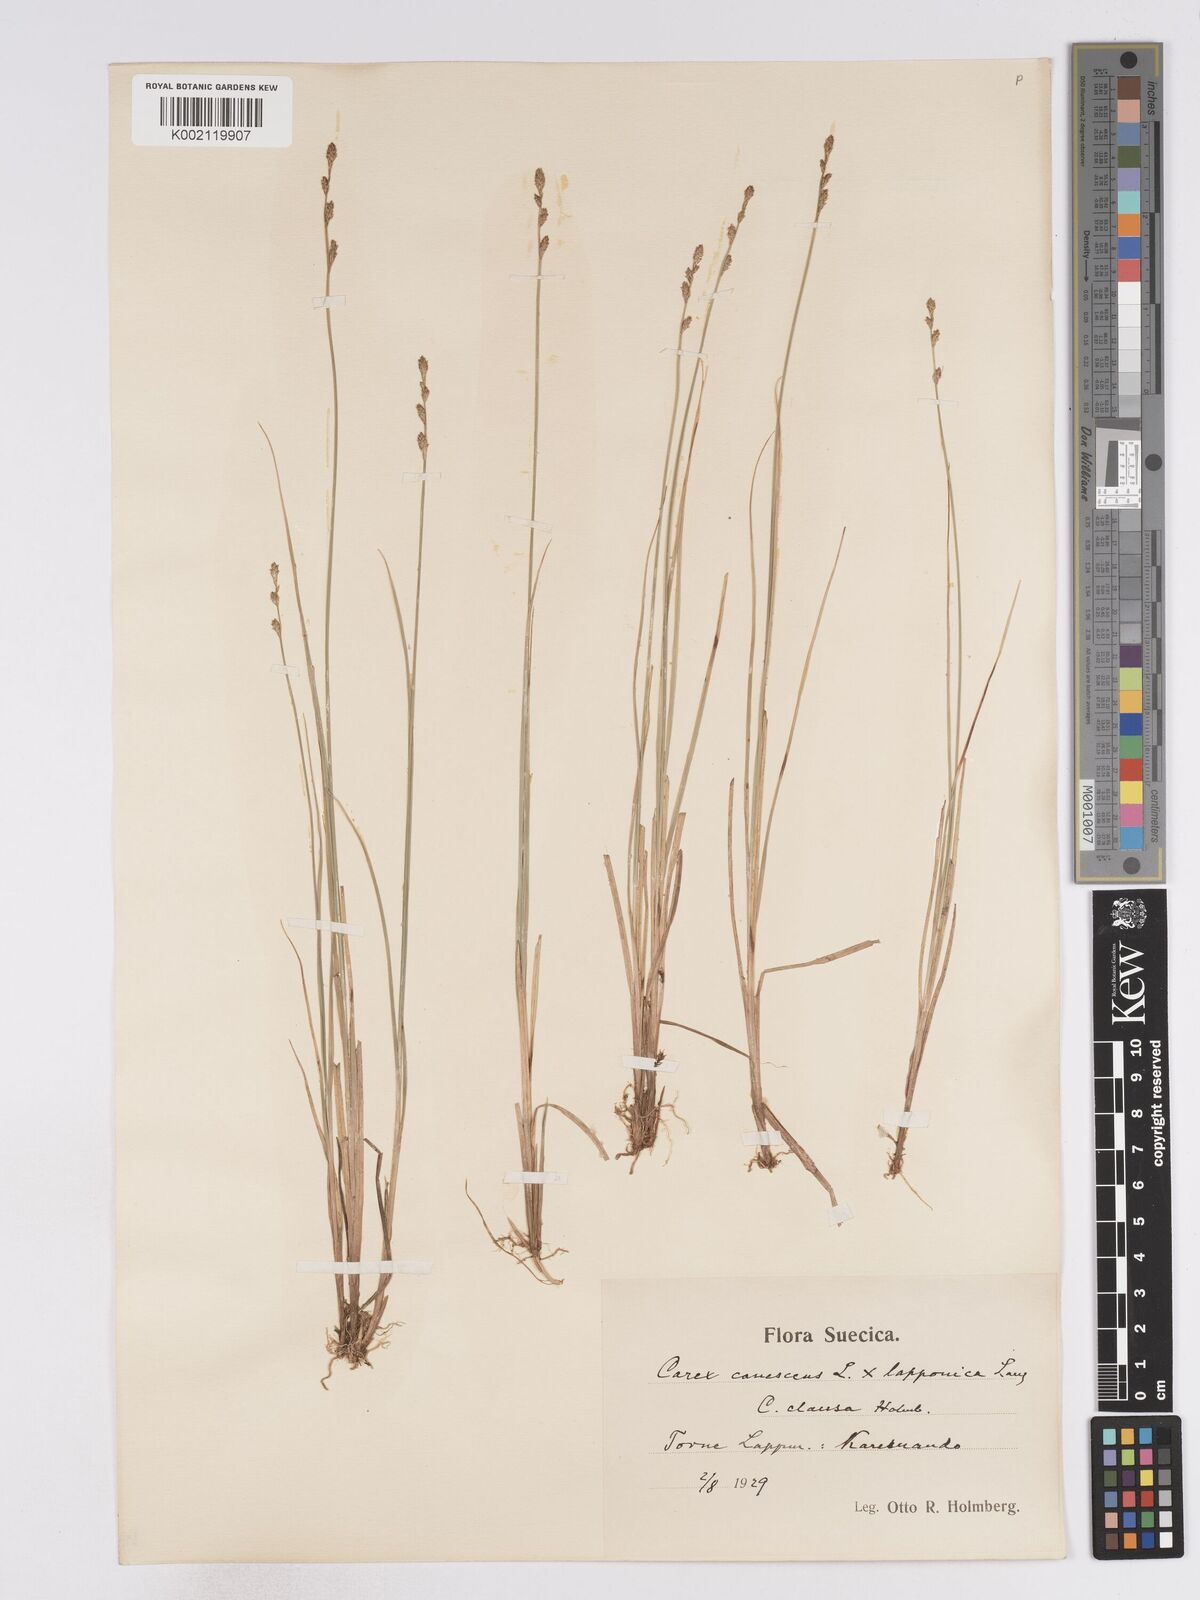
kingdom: Plantae
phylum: Tracheophyta
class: Liliopsida
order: Poales
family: Cyperaceae
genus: Carex
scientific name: Carex curta
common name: White sedge
